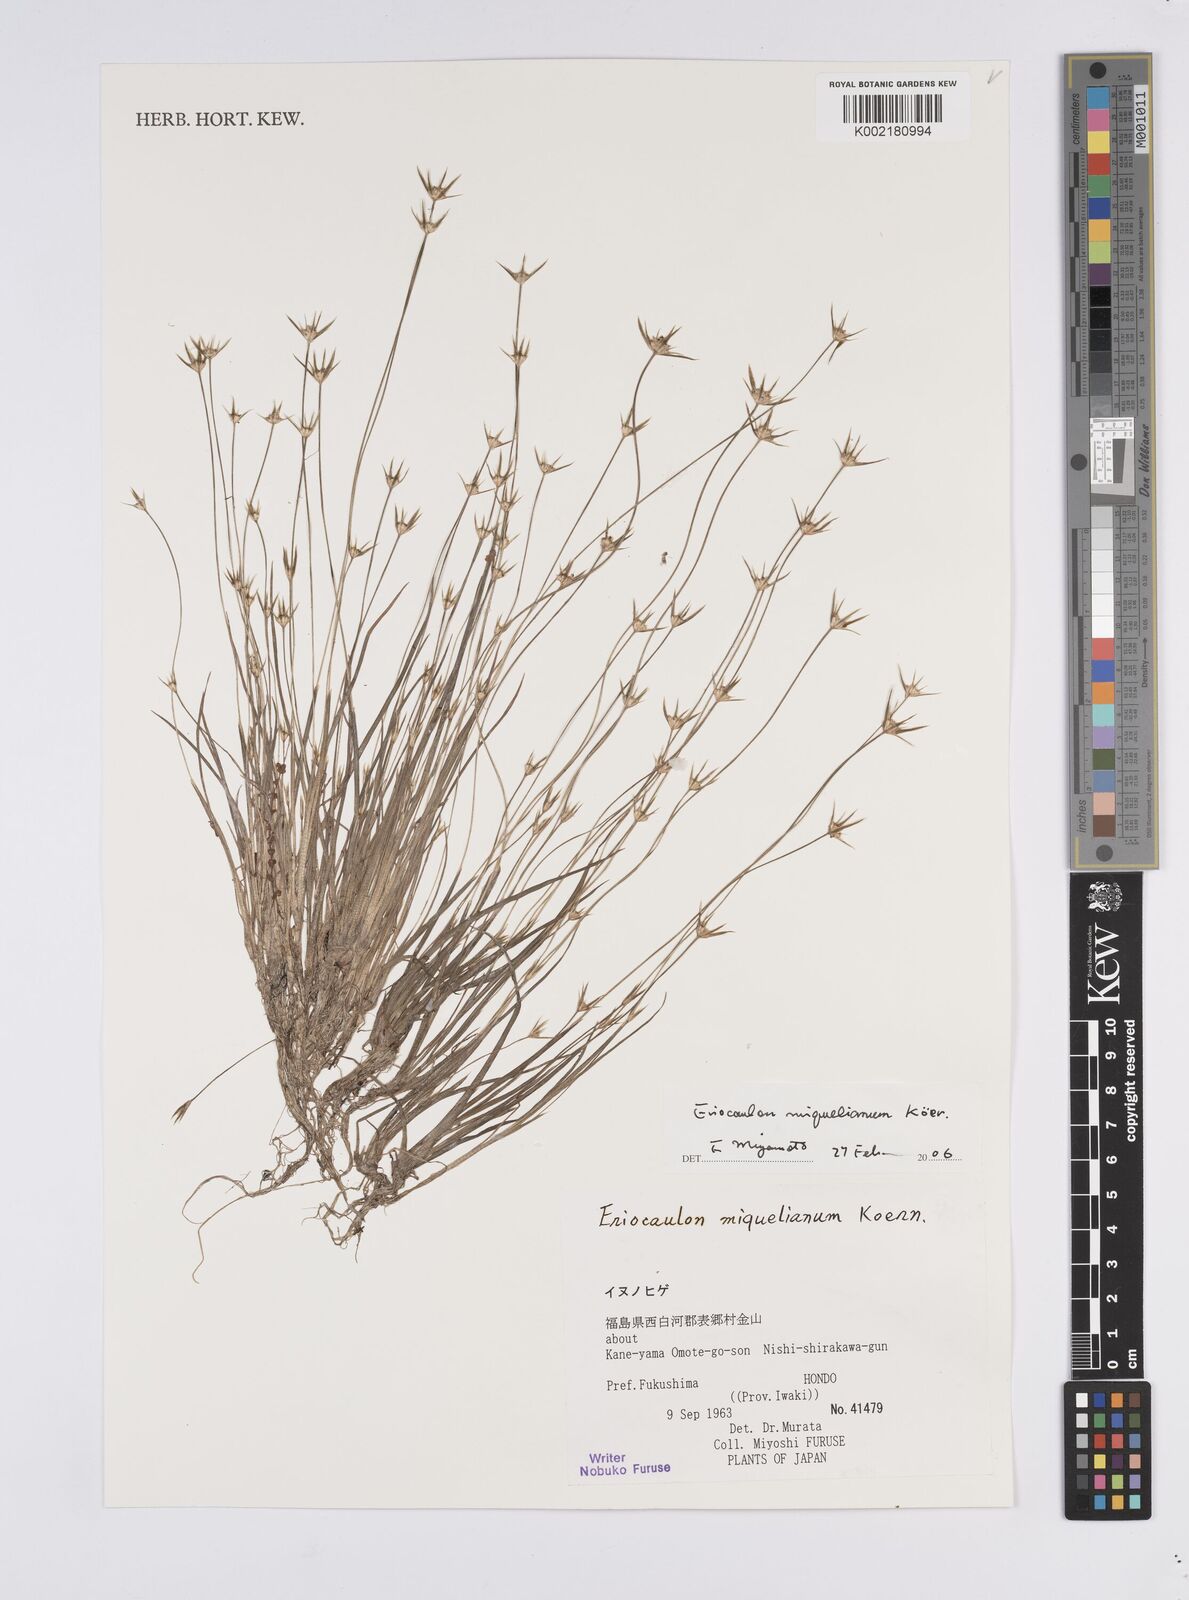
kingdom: Plantae
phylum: Tracheophyta
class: Liliopsida
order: Poales
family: Eriocaulaceae
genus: Eriocaulon
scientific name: Eriocaulon miquelianum
